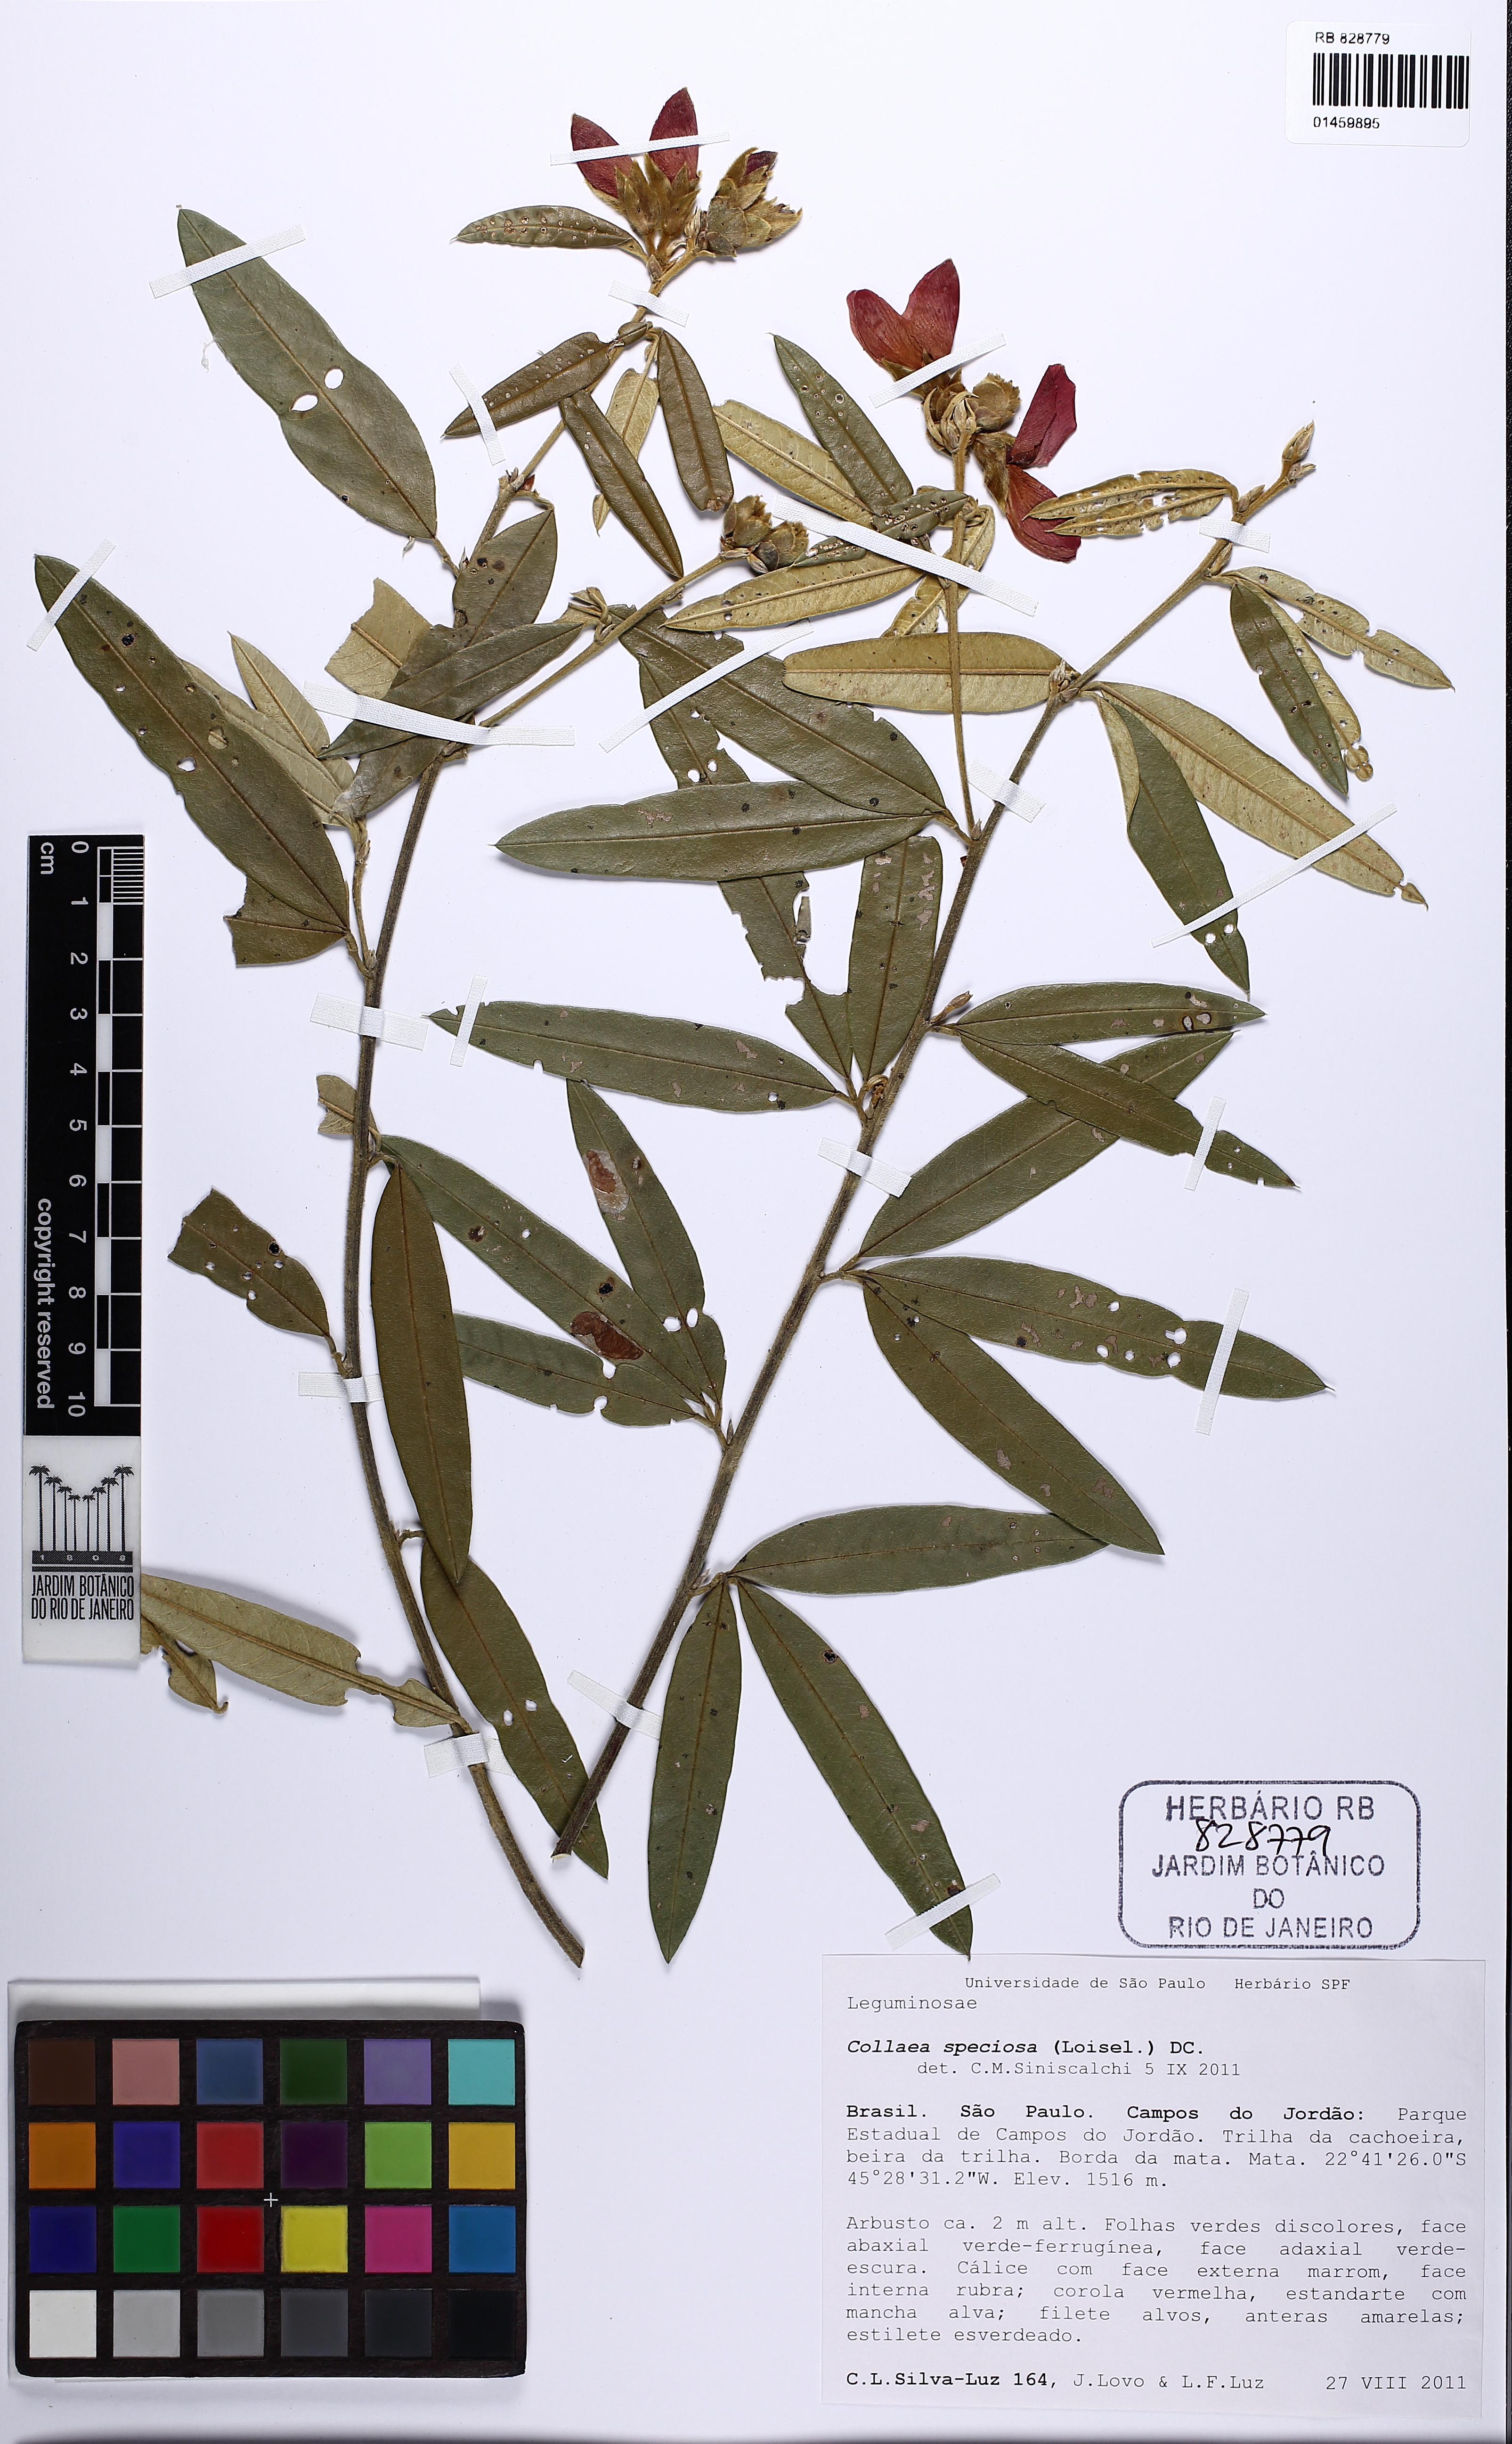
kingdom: Plantae
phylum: Tracheophyta
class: Magnoliopsida
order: Fabales
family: Fabaceae
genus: Collaea
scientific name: Collaea speciosa
